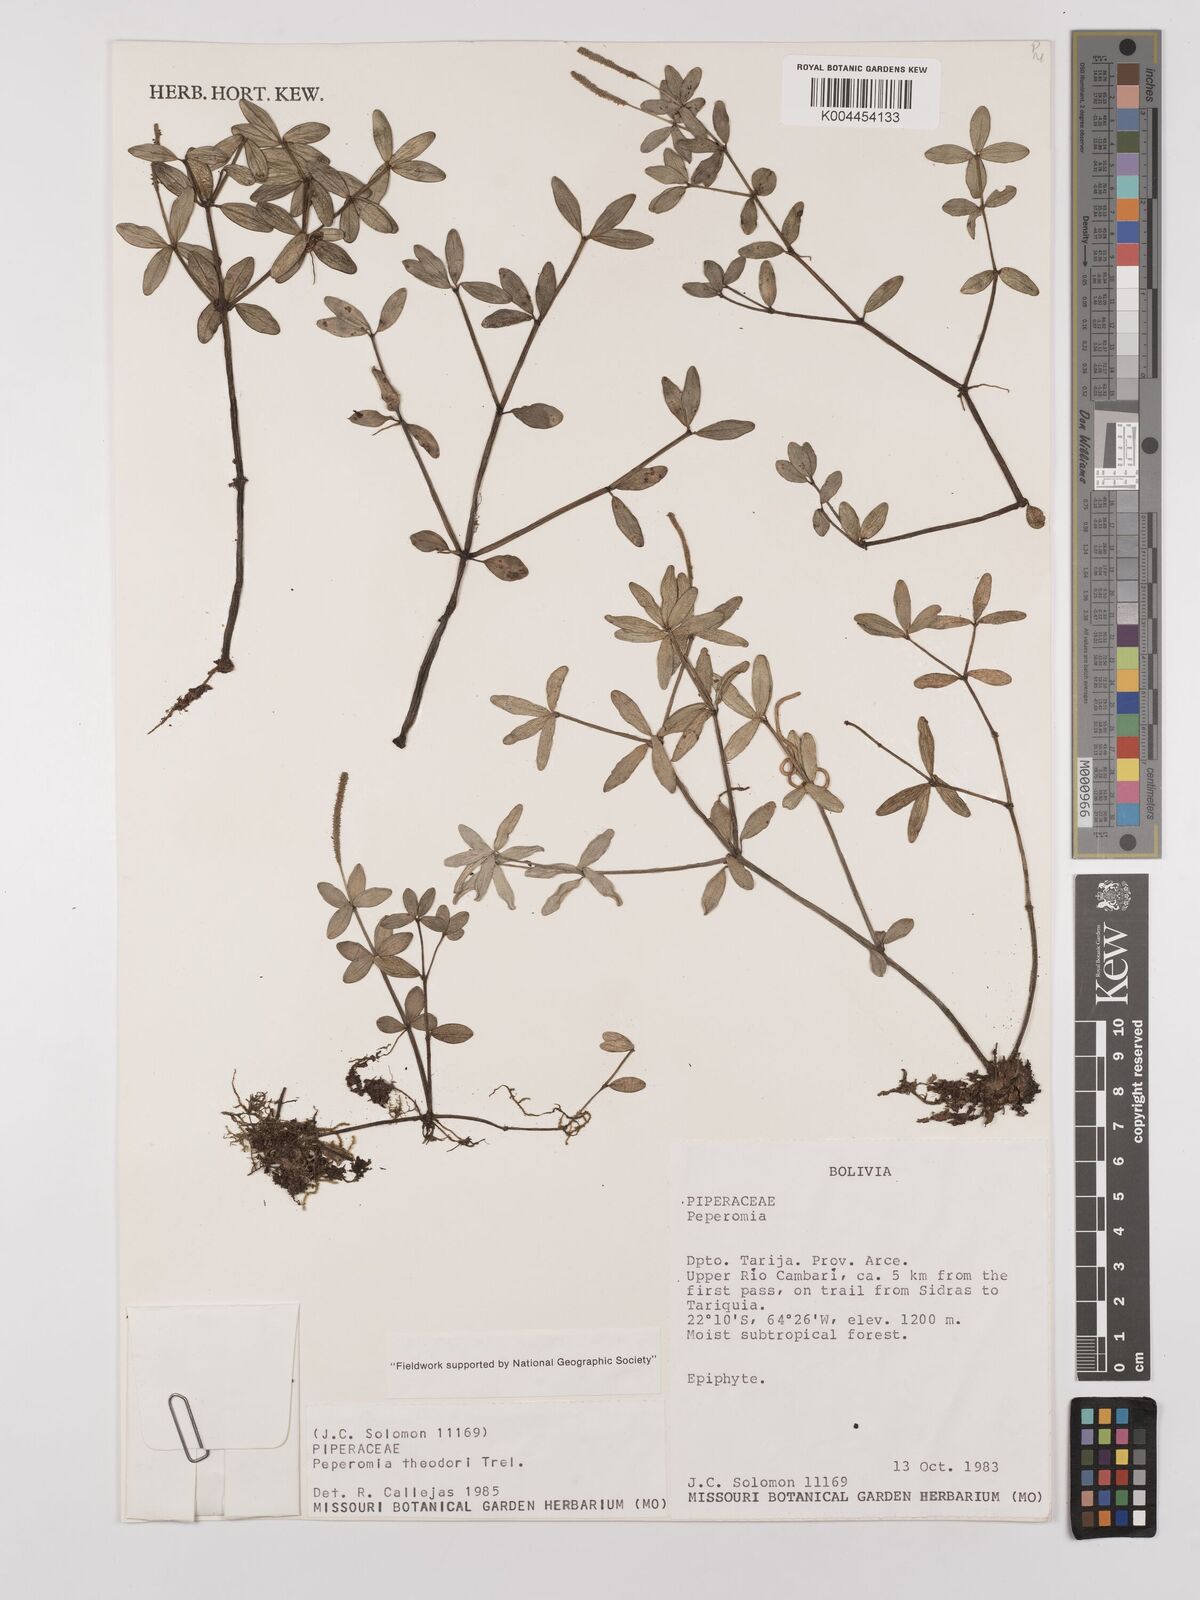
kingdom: Plantae
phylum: Tracheophyta
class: Magnoliopsida
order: Piperales
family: Piperaceae
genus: Peperomia
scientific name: Peperomia theodori
